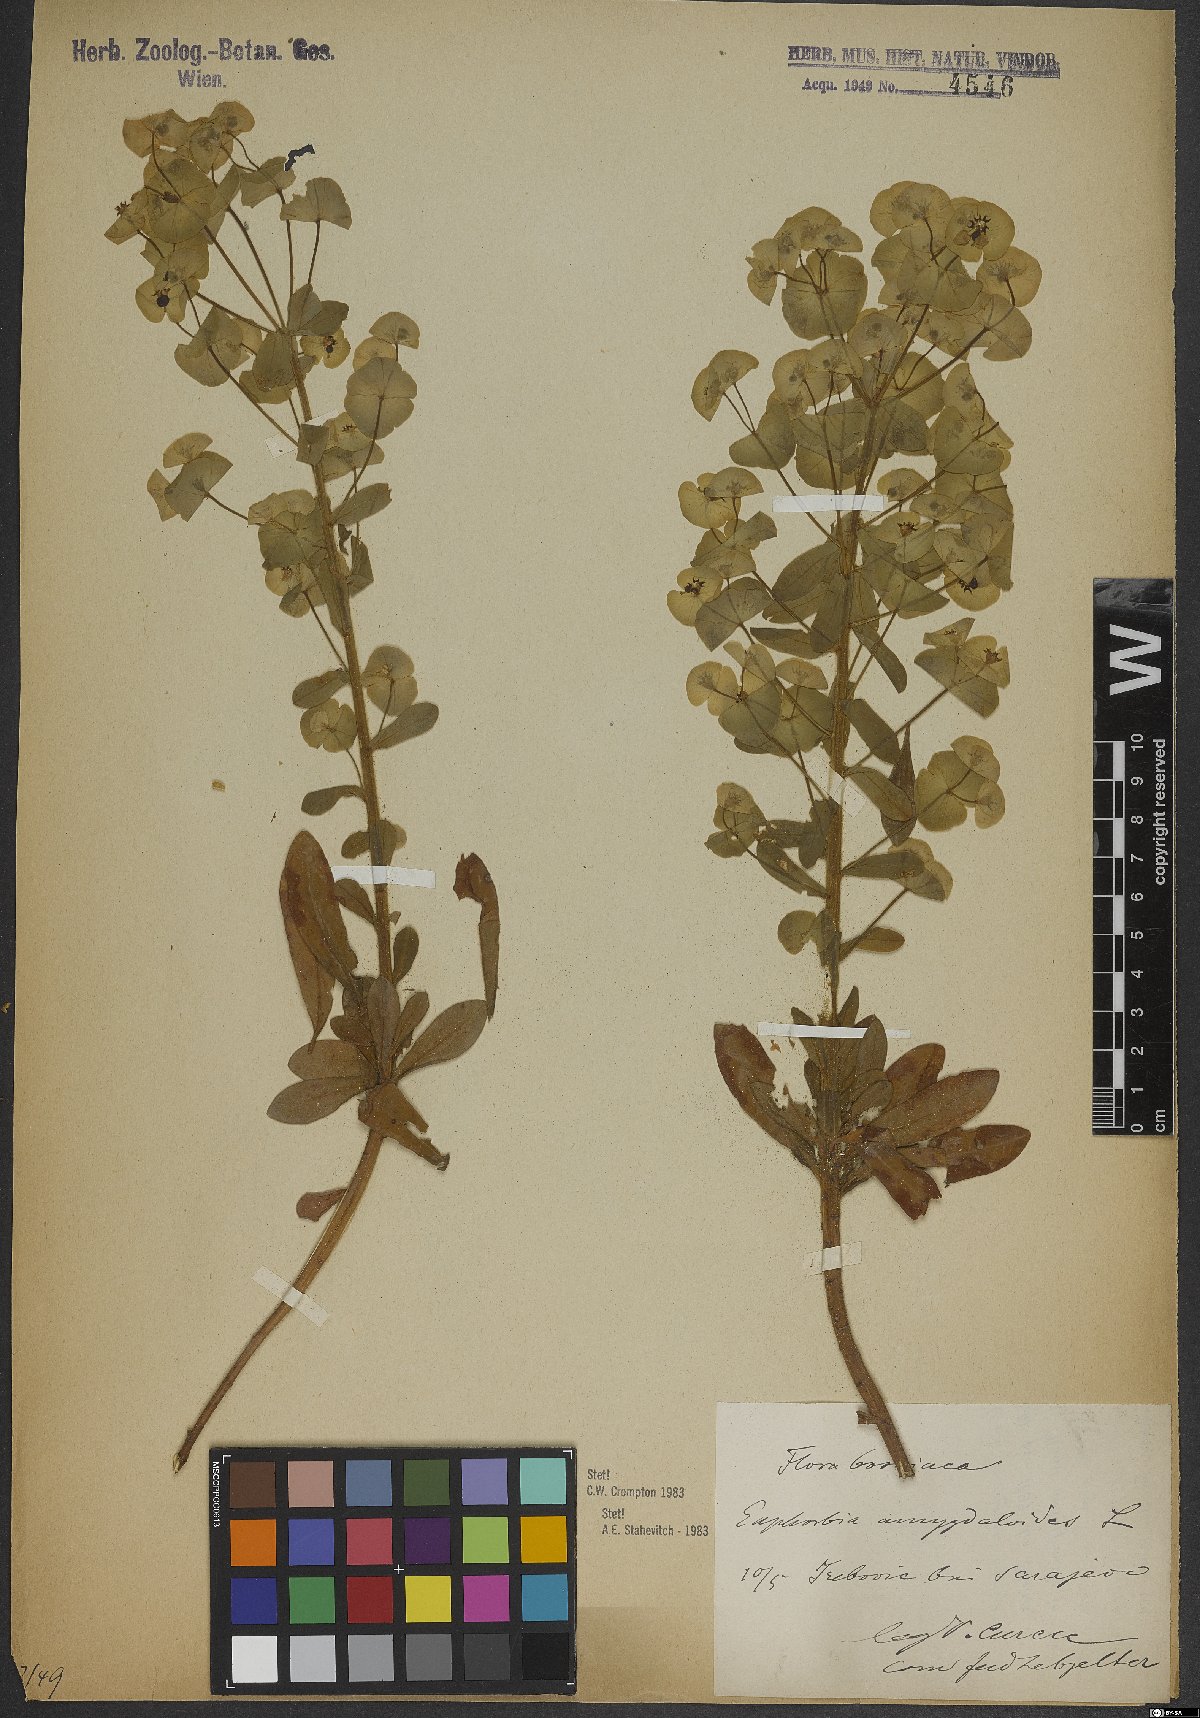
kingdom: Plantae
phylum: Tracheophyta
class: Magnoliopsida
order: Malpighiales
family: Euphorbiaceae
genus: Euphorbia
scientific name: Euphorbia amygdaloides
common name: Wood spurge
